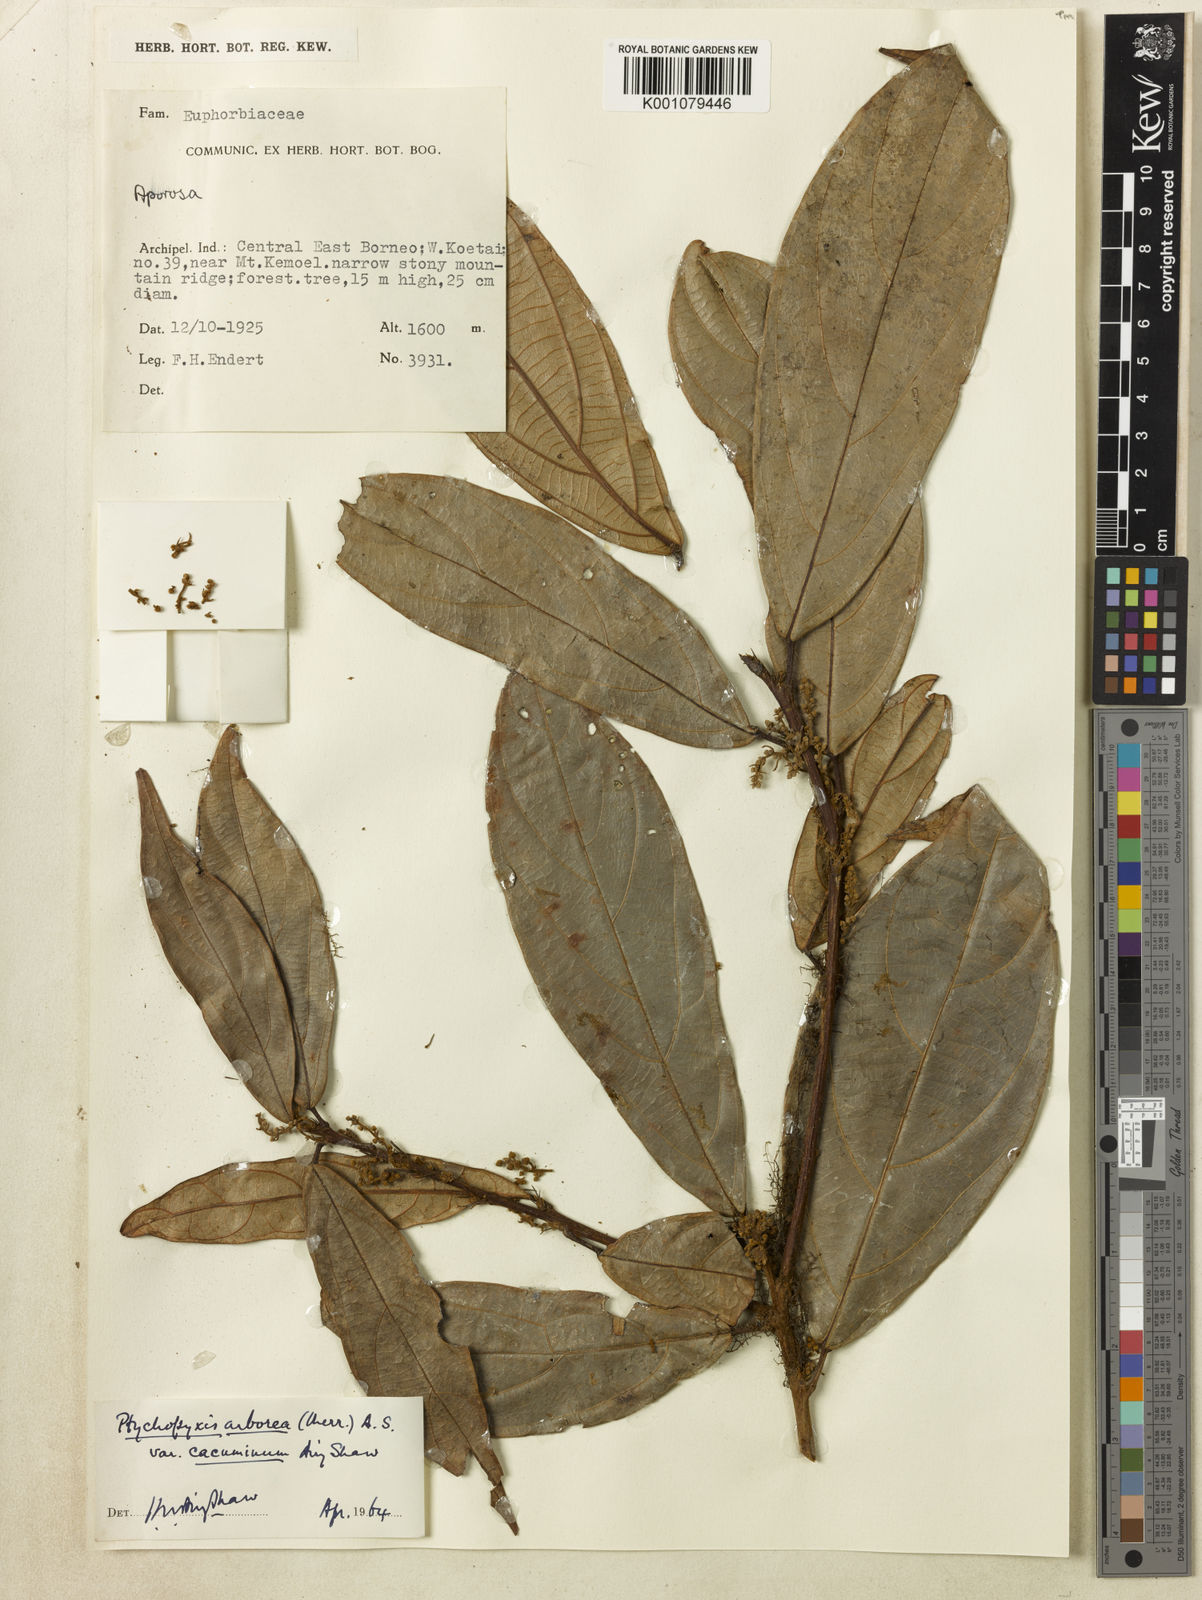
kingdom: Plantae
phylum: Tracheophyta
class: Magnoliopsida
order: Malpighiales
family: Euphorbiaceae
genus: Ptychopyxis
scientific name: Ptychopyxis arborea
